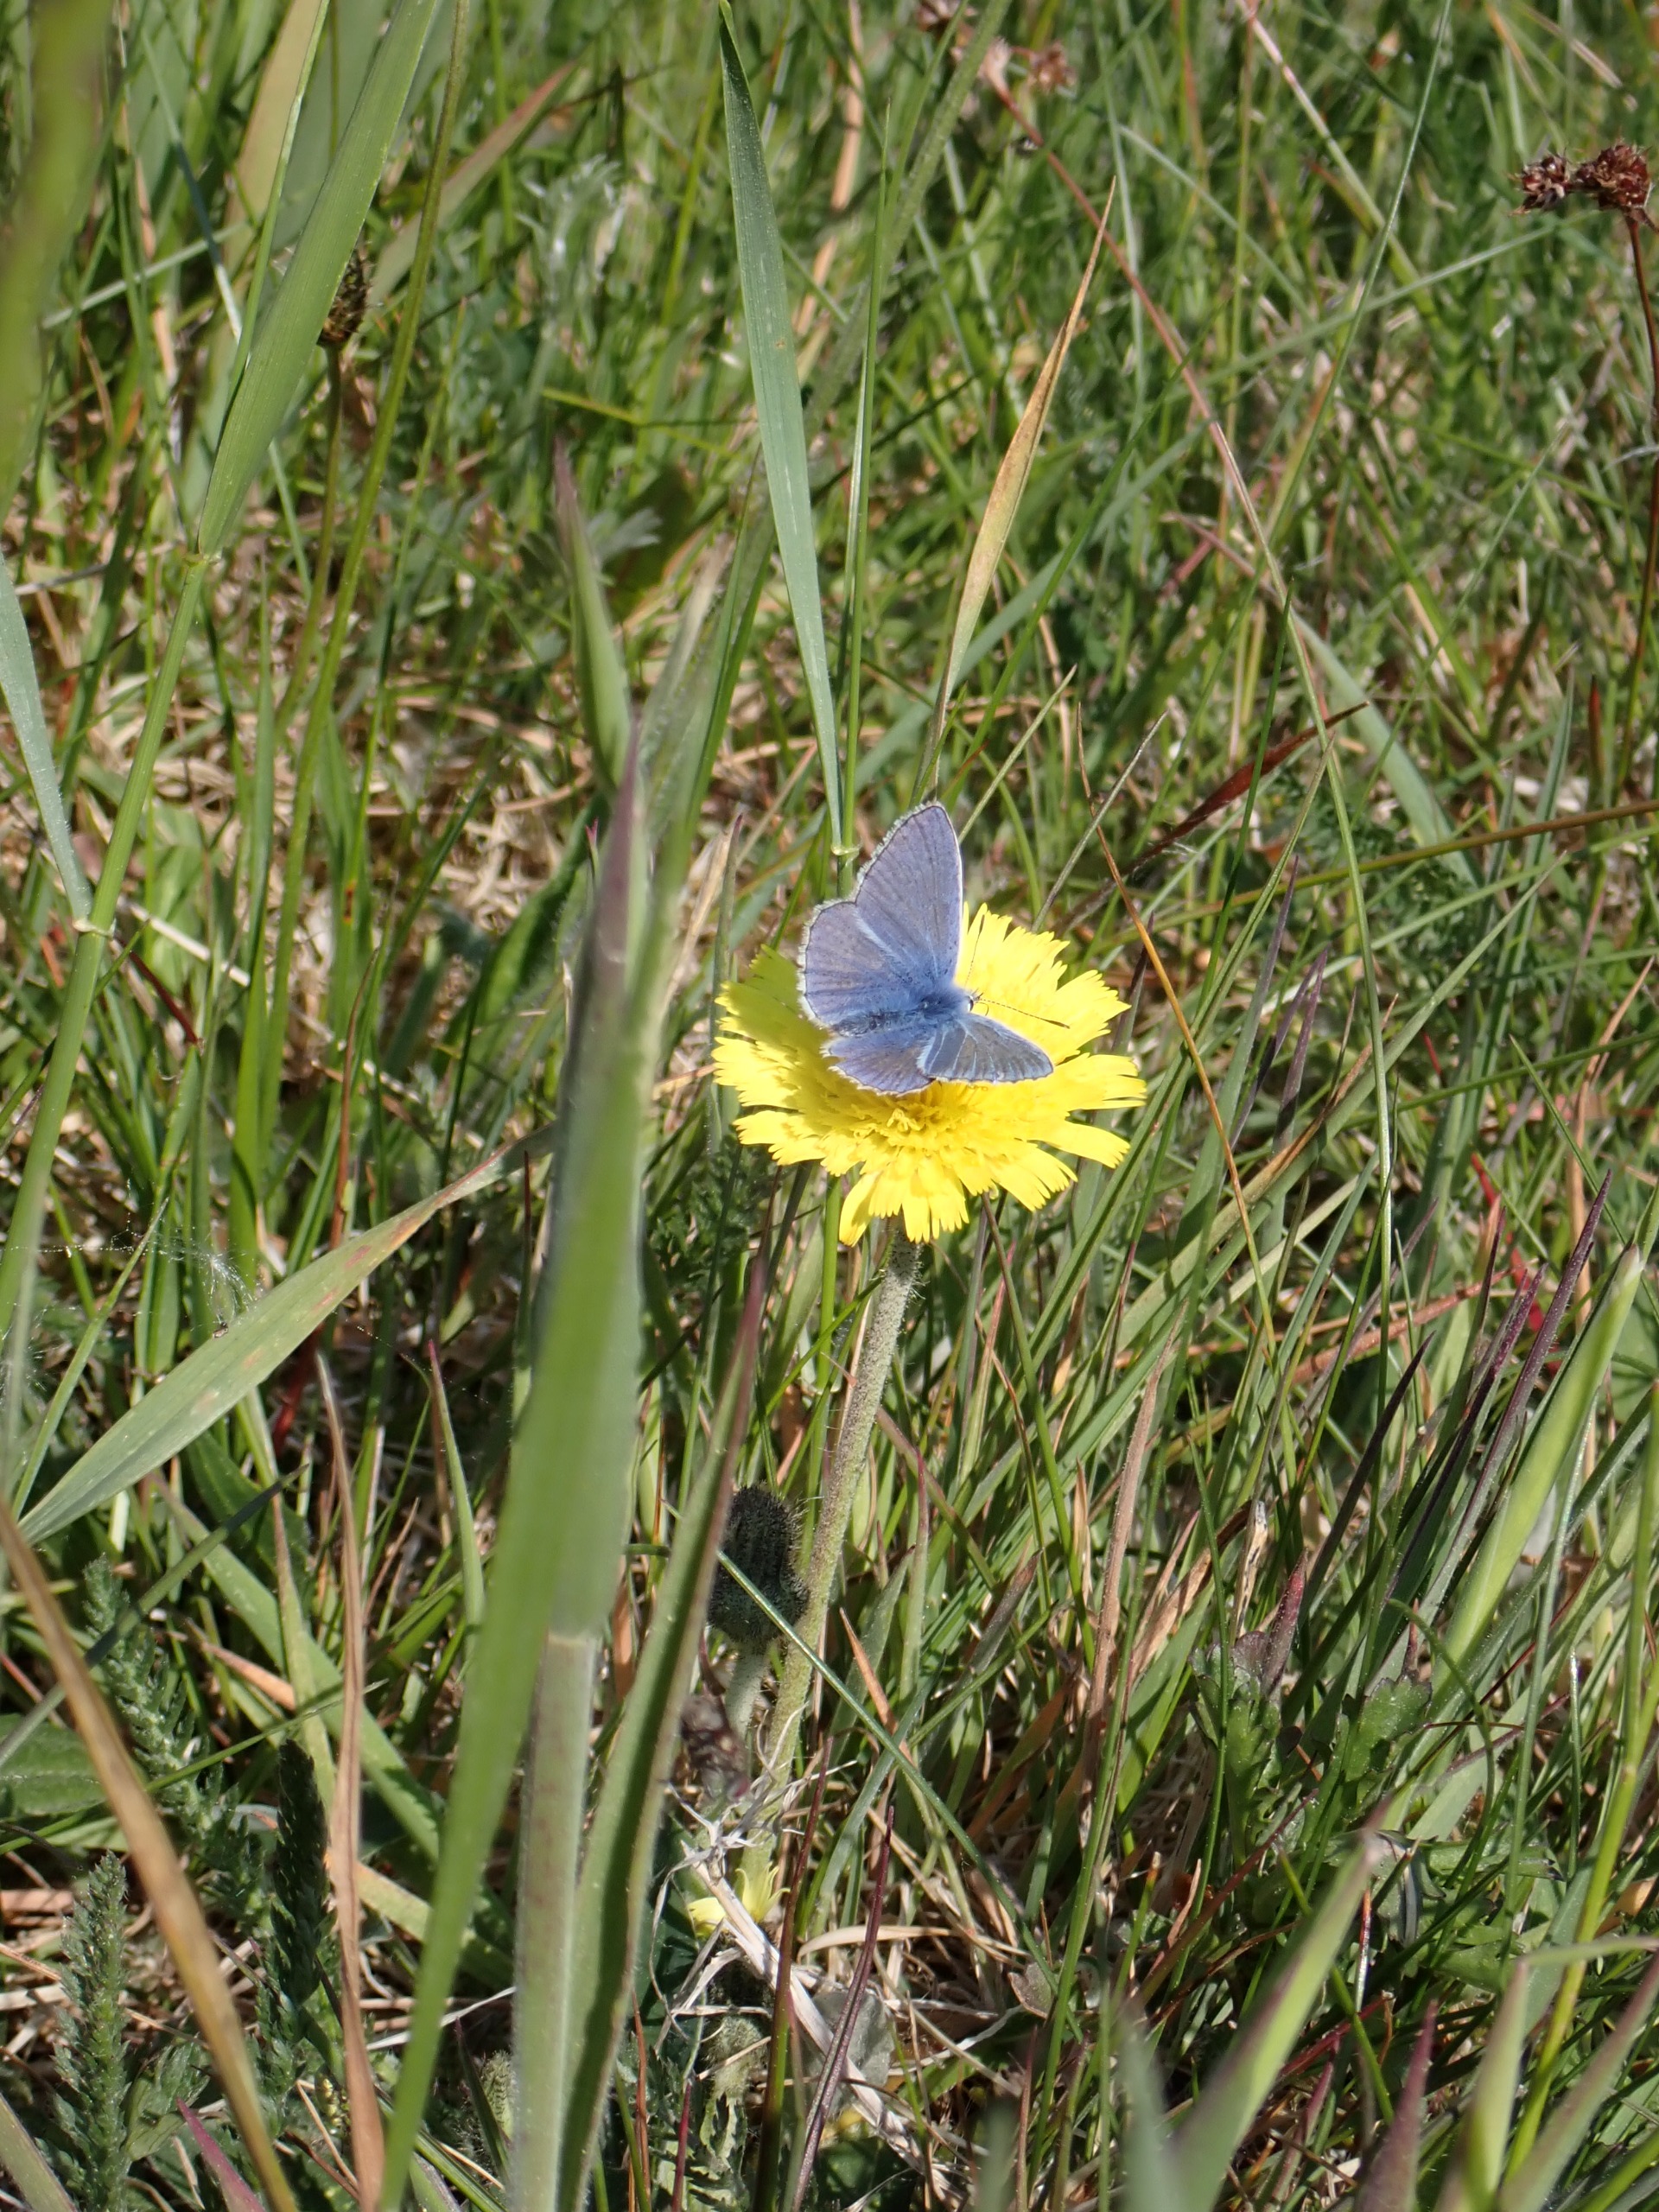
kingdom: Animalia
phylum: Arthropoda
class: Insecta
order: Lepidoptera
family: Lycaenidae
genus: Polyommatus
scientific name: Polyommatus icarus
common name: Almindelig blåfugl
